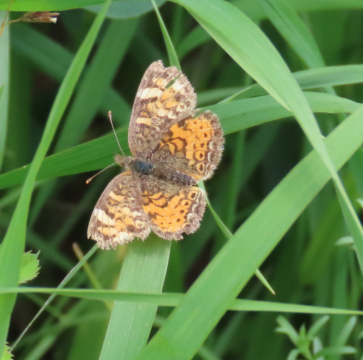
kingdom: Animalia
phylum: Arthropoda
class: Insecta
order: Lepidoptera
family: Nymphalidae
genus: Phyciodes
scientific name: Phyciodes tharos
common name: Pearl Crescent
